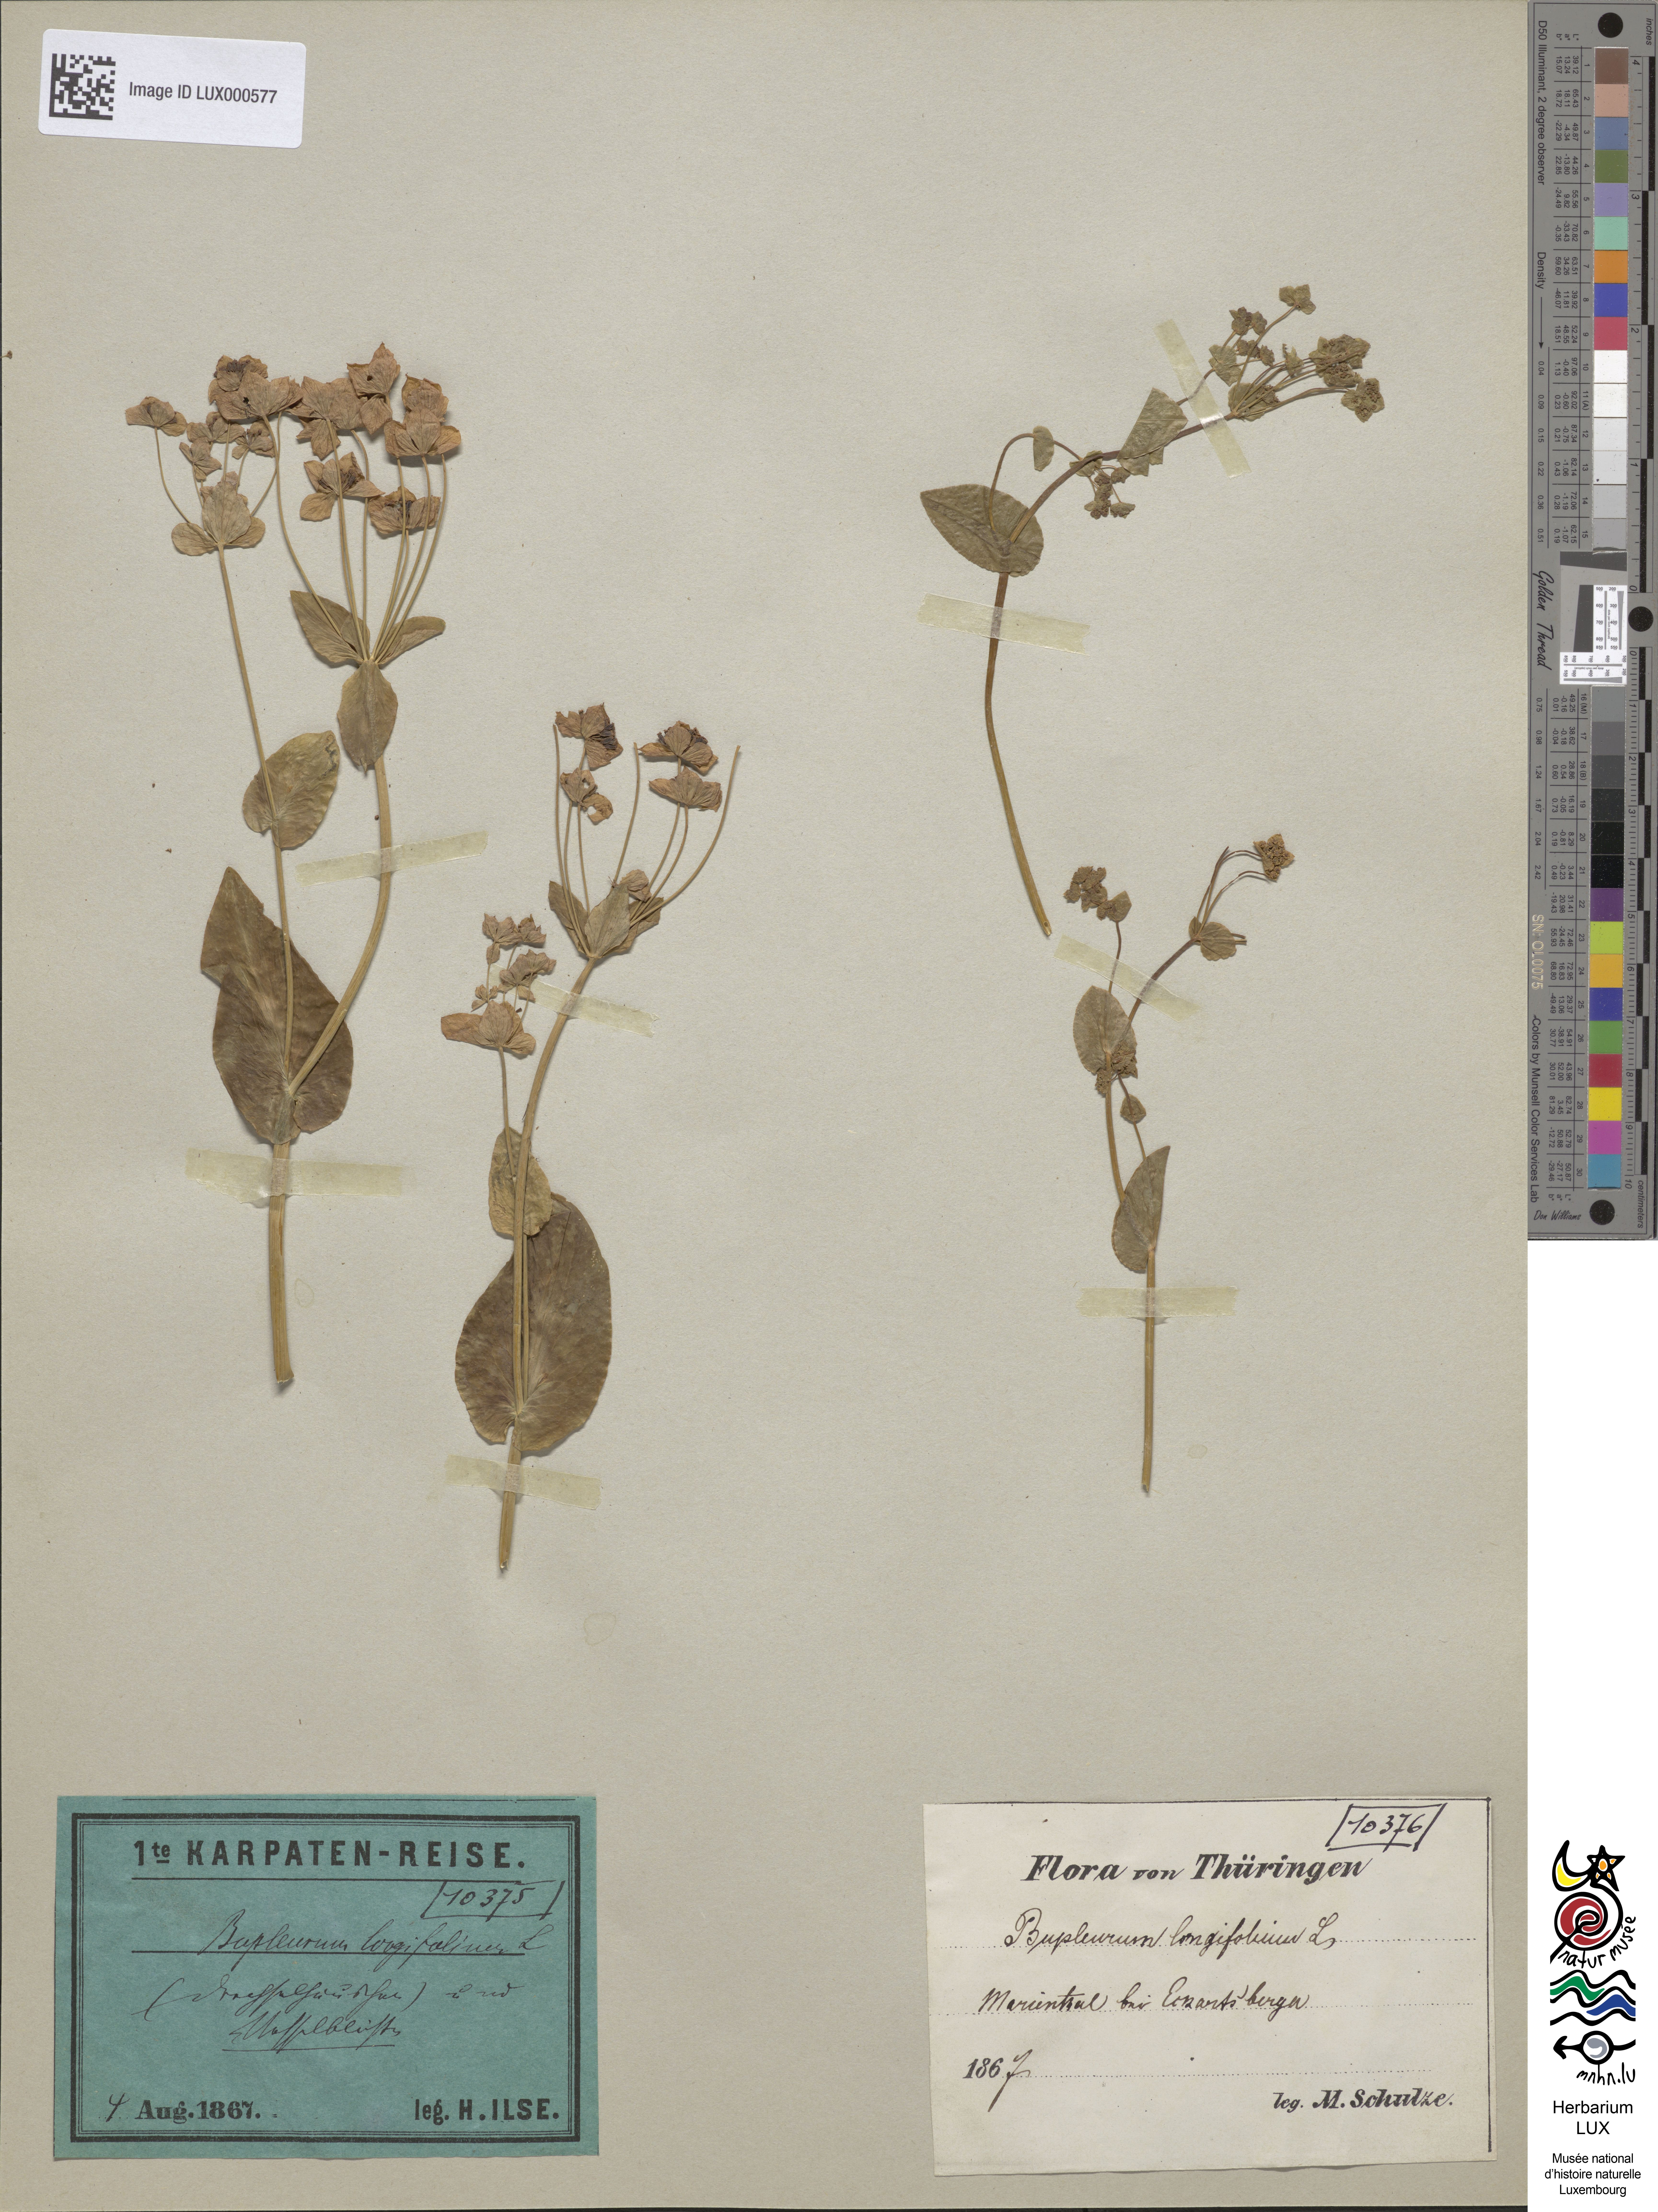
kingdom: Plantae
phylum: Tracheophyta
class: Magnoliopsida
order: Apiales
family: Apiaceae
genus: Bupleurum
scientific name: Bupleurum longifolium
